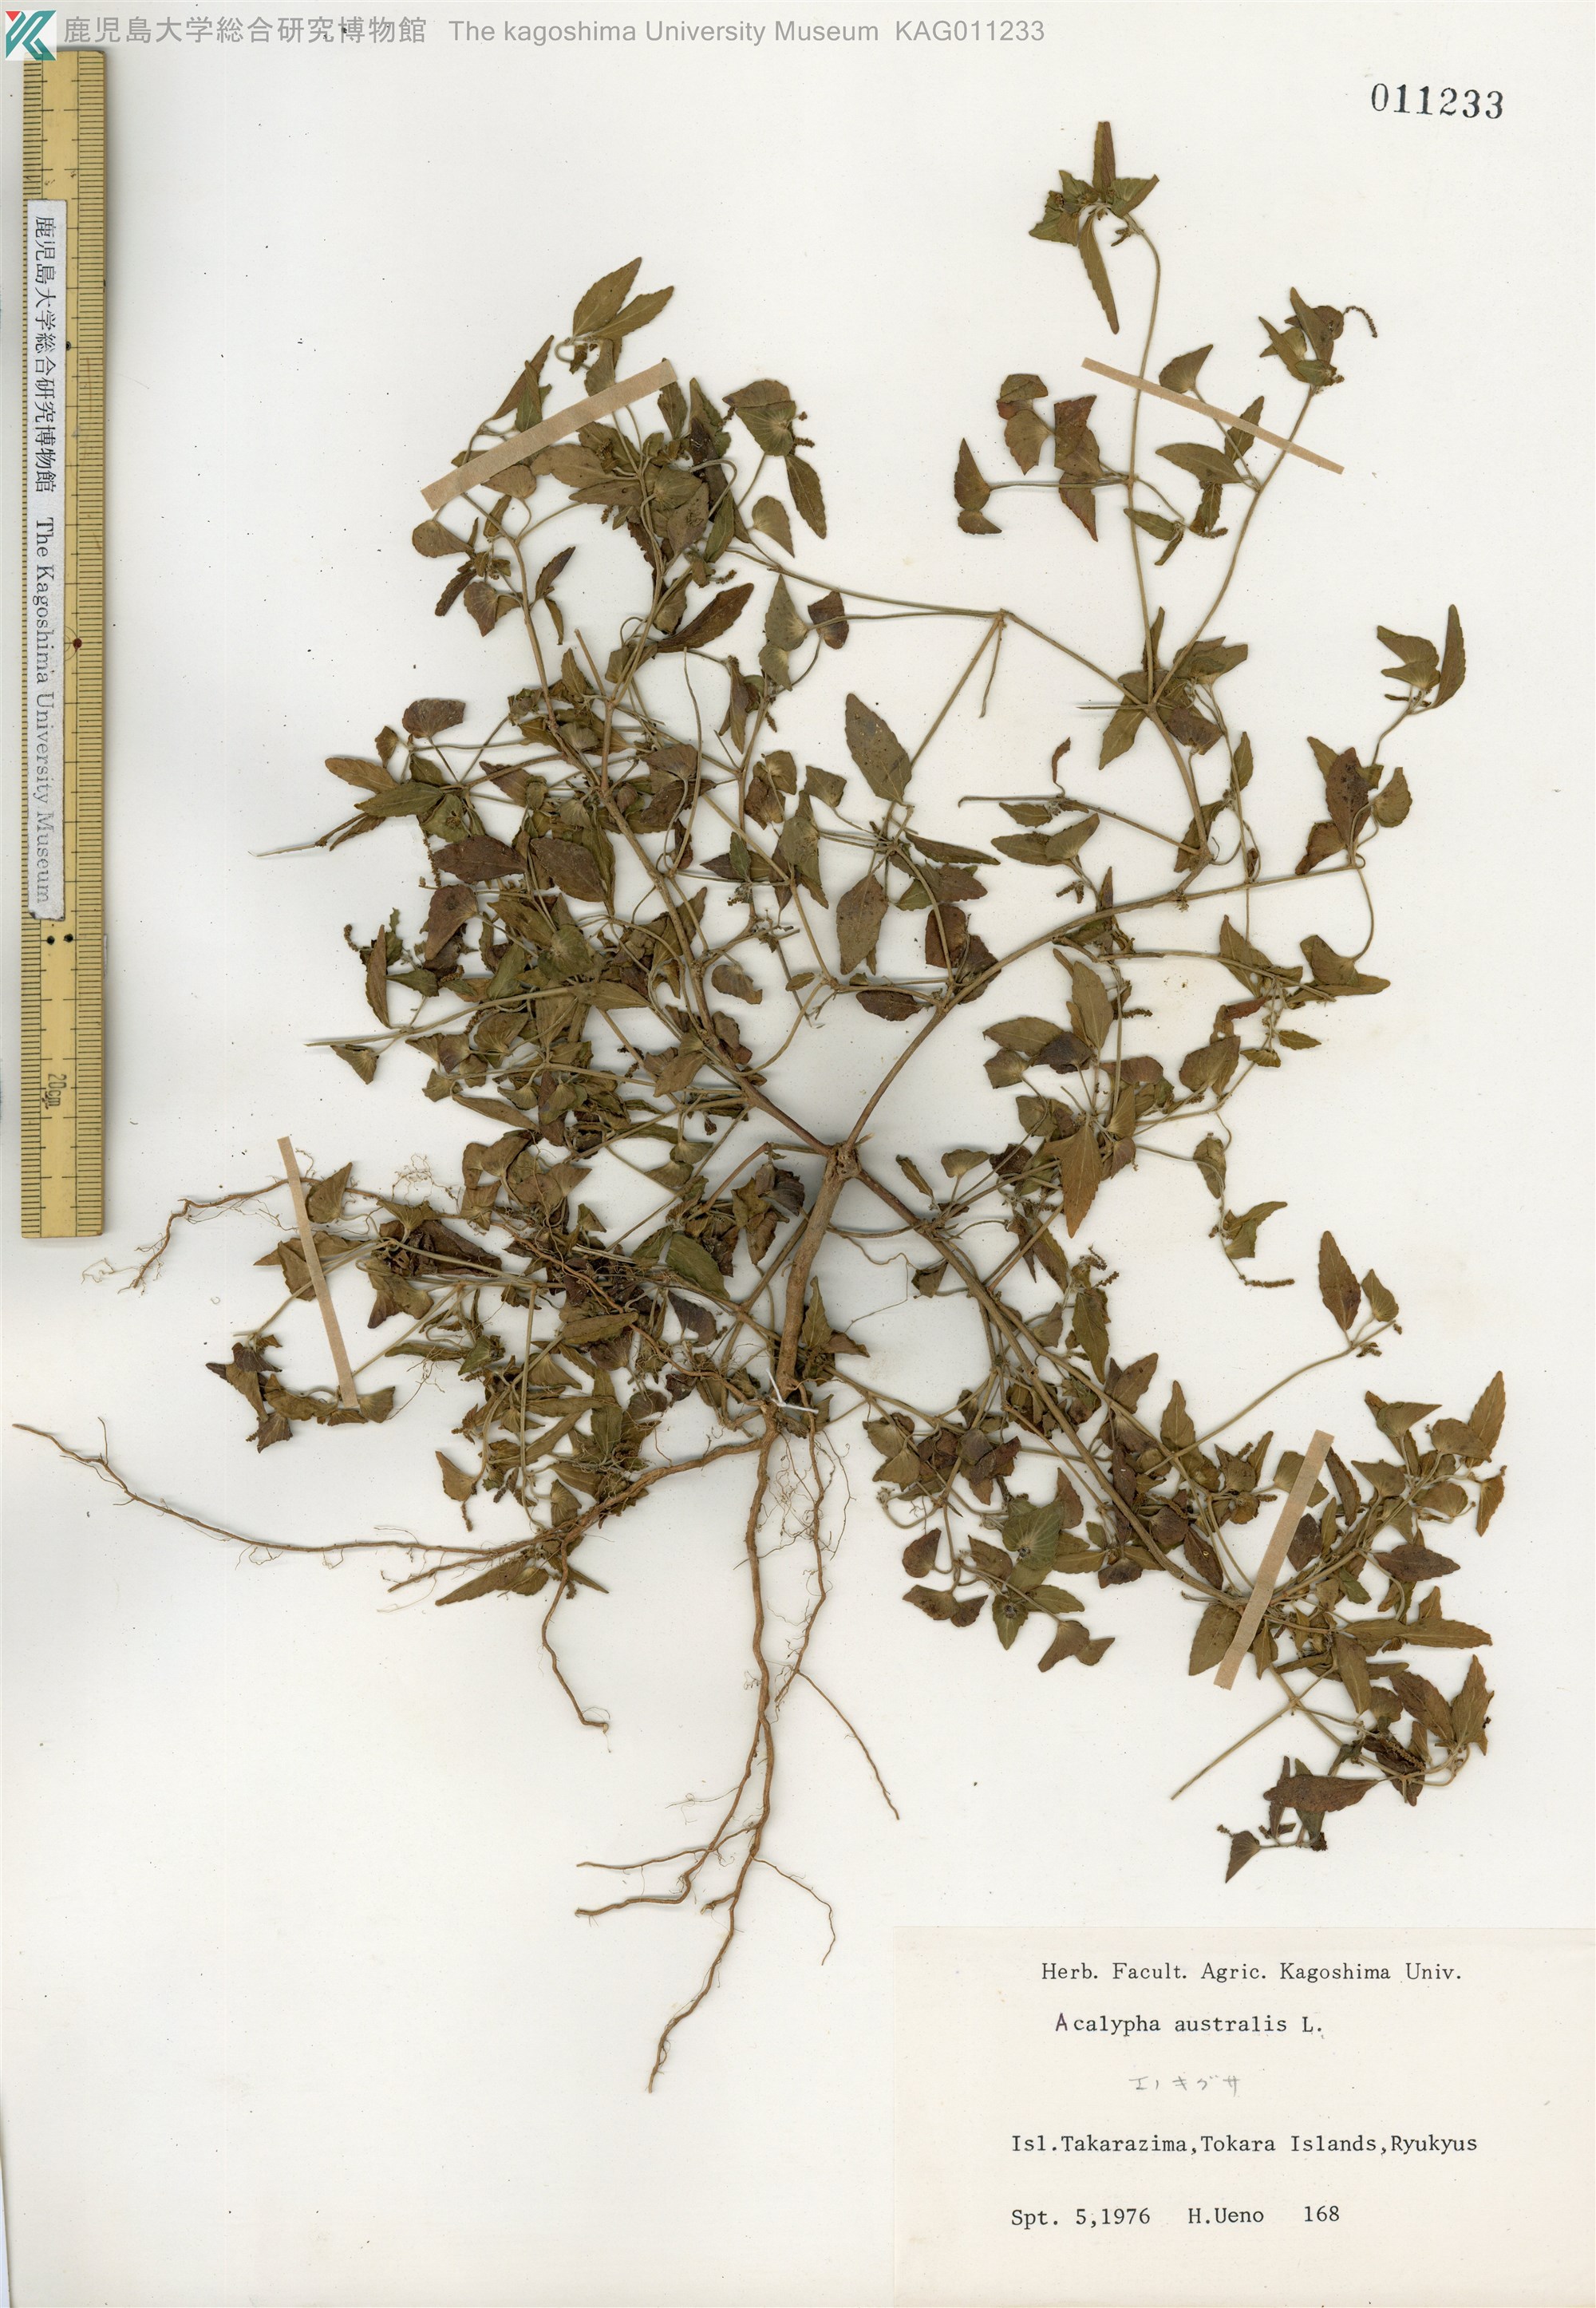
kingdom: Plantae
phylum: Tracheophyta
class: Magnoliopsida
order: Malpighiales
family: Euphorbiaceae
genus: Acalypha
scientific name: Acalypha australis
